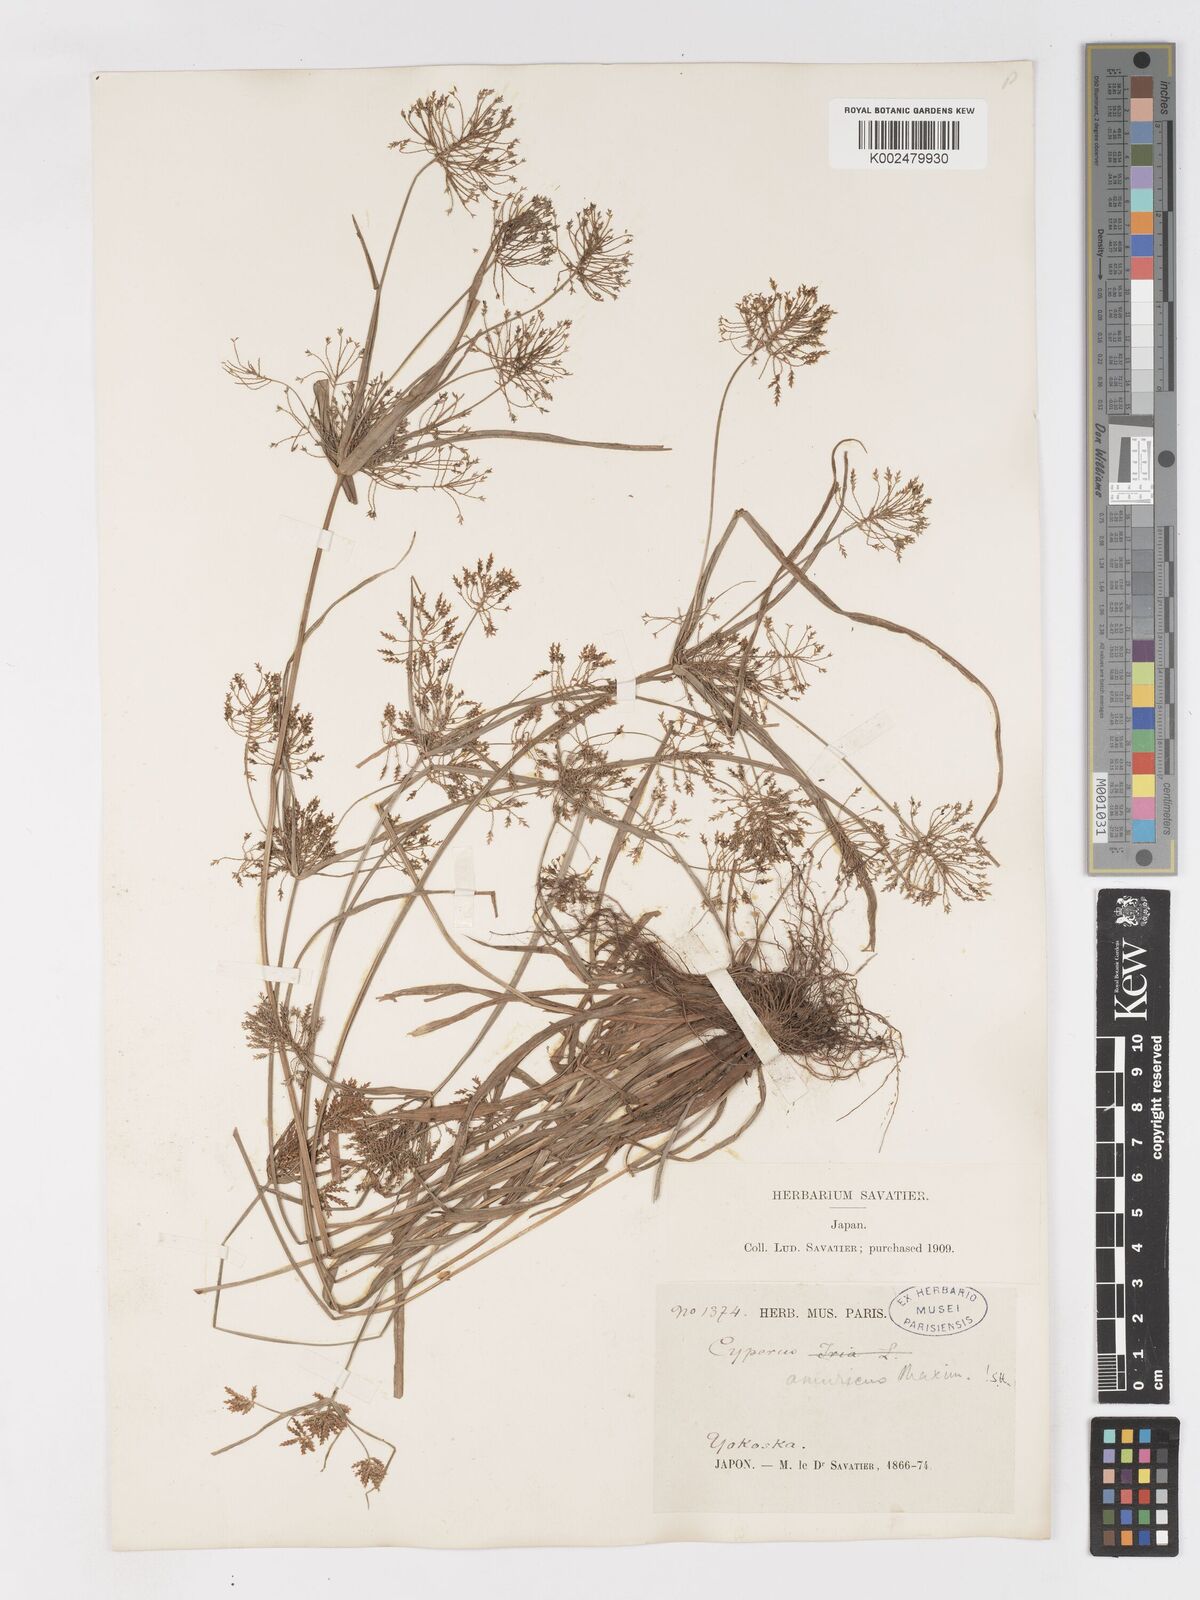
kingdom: Plantae
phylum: Tracheophyta
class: Liliopsida
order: Poales
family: Cyperaceae
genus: Cyperus
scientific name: Cyperus amuricus
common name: Asian flatsedge
